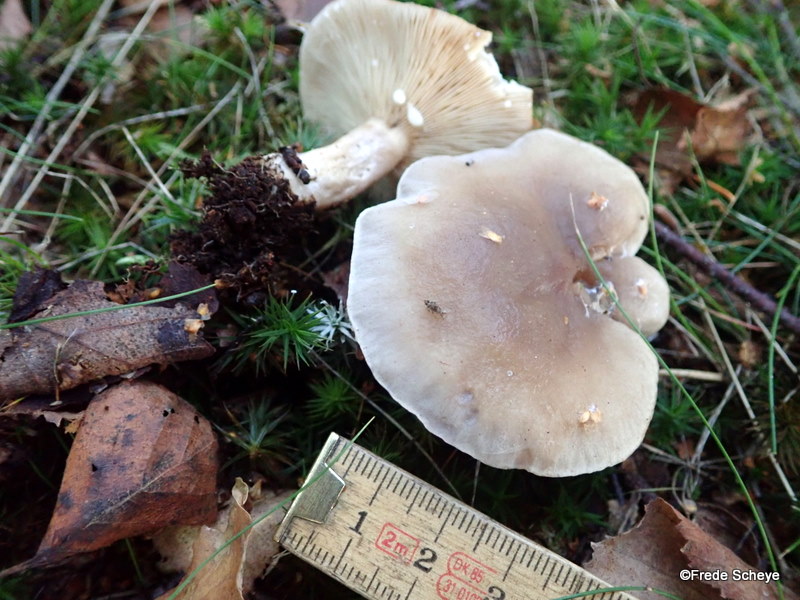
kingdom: Fungi
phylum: Basidiomycota
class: Agaricomycetes
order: Russulales
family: Russulaceae
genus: Lactarius
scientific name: Lactarius vietus
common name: violetgrå mælkehat
